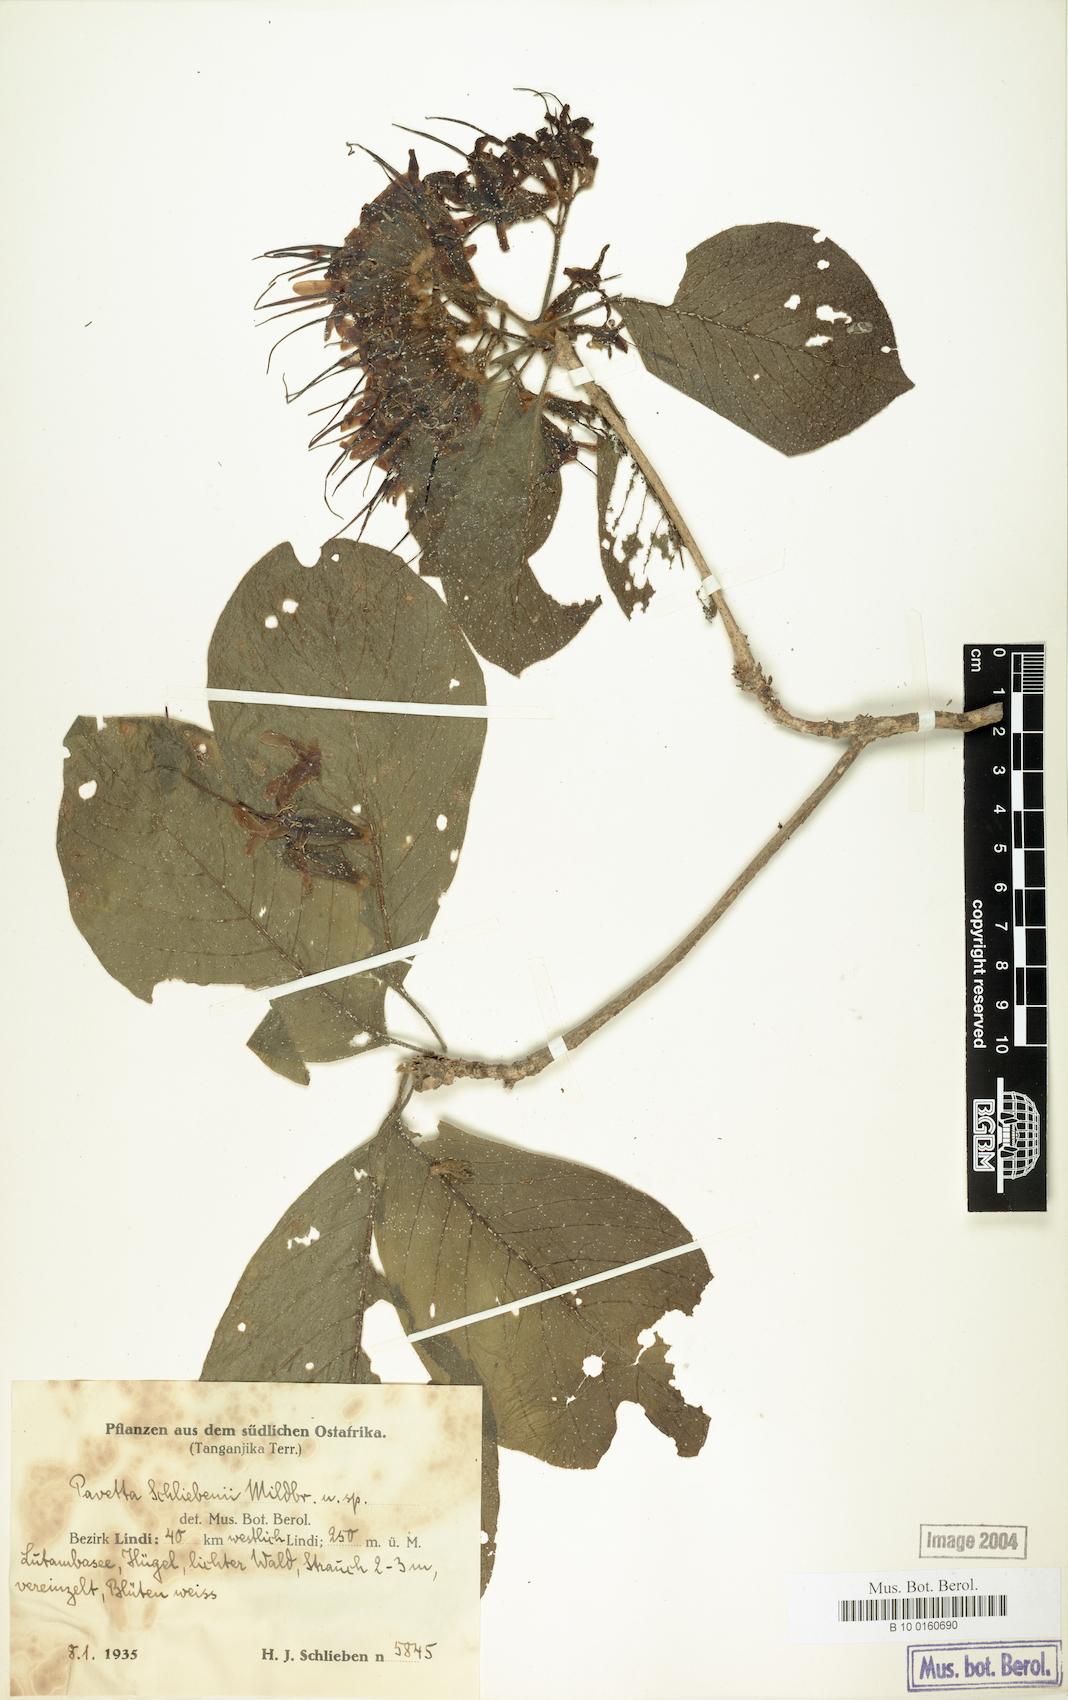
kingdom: Plantae
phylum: Tracheophyta
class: Magnoliopsida
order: Gentianales
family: Rubiaceae
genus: Pavetta
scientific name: Pavetta schliebenii
